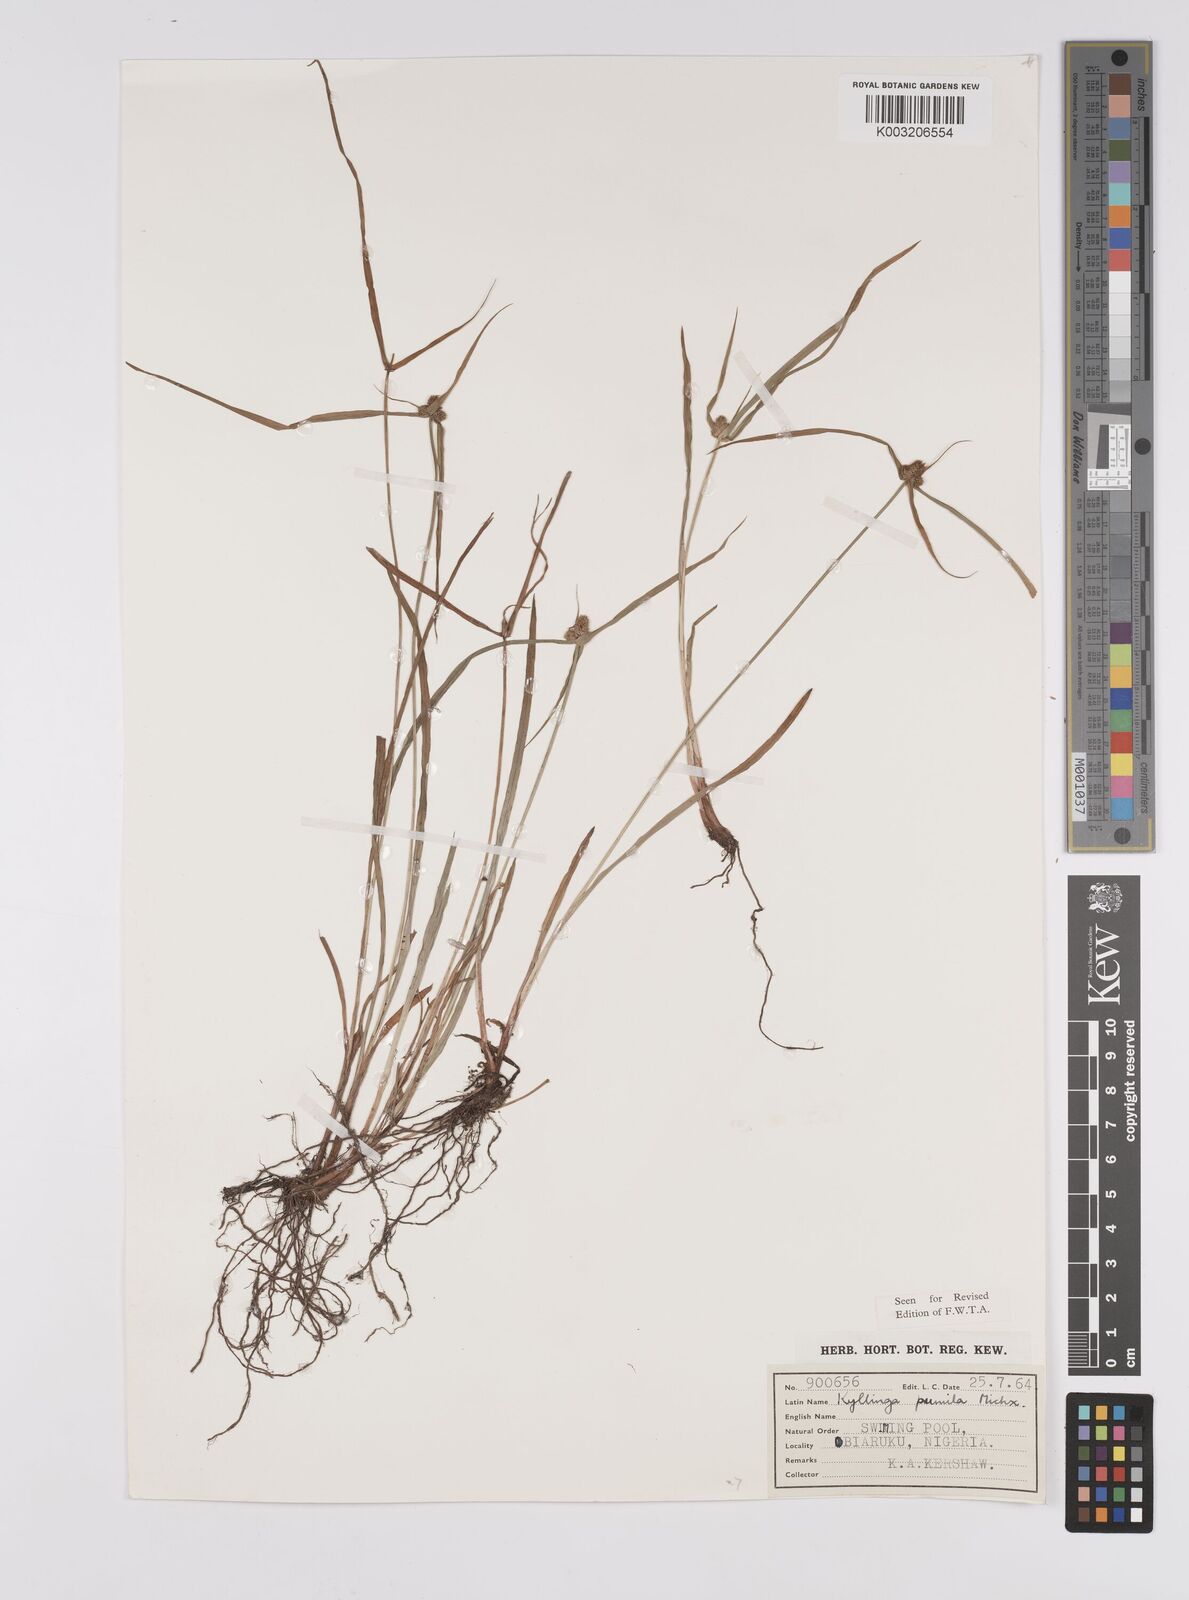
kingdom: Plantae
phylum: Tracheophyta
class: Liliopsida
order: Poales
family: Cyperaceae
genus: Cyperus
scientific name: Cyperus
